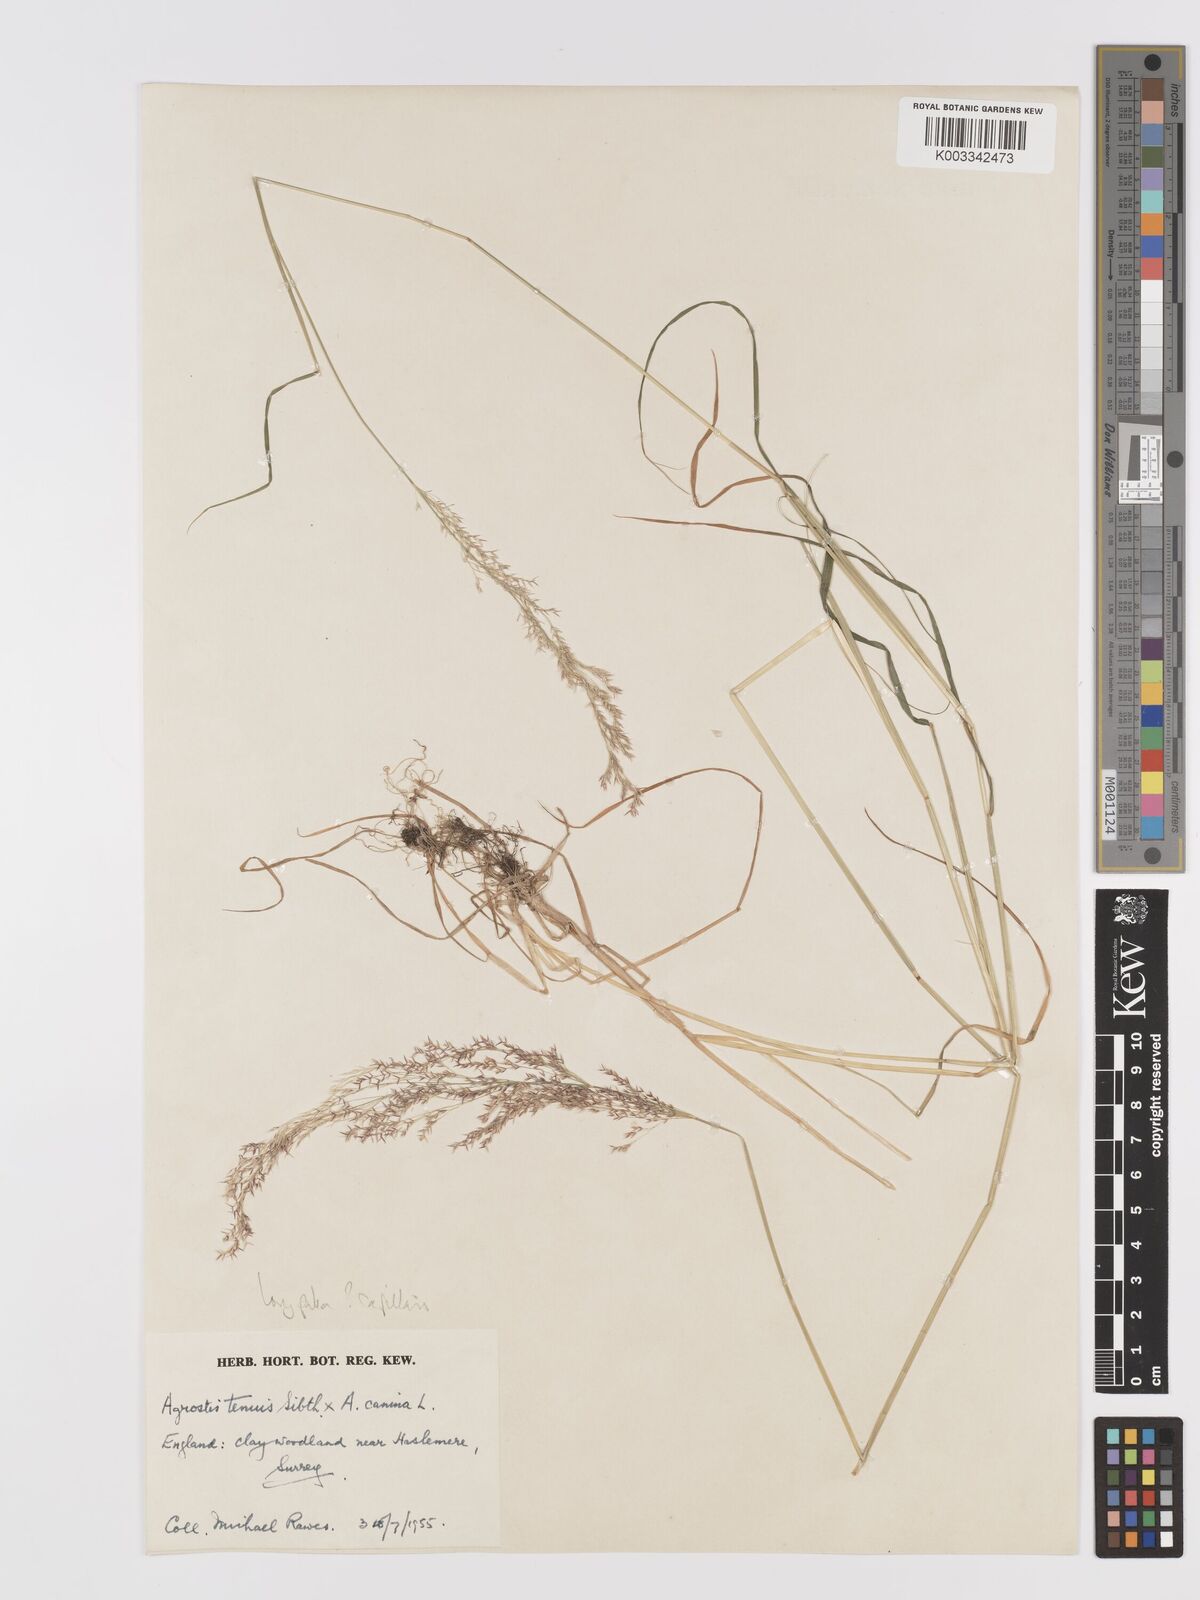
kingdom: Plantae
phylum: Tracheophyta
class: Liliopsida
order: Poales
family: Poaceae
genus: Agrostis
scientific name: Agrostis capillaris
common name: Colonial bentgrass
